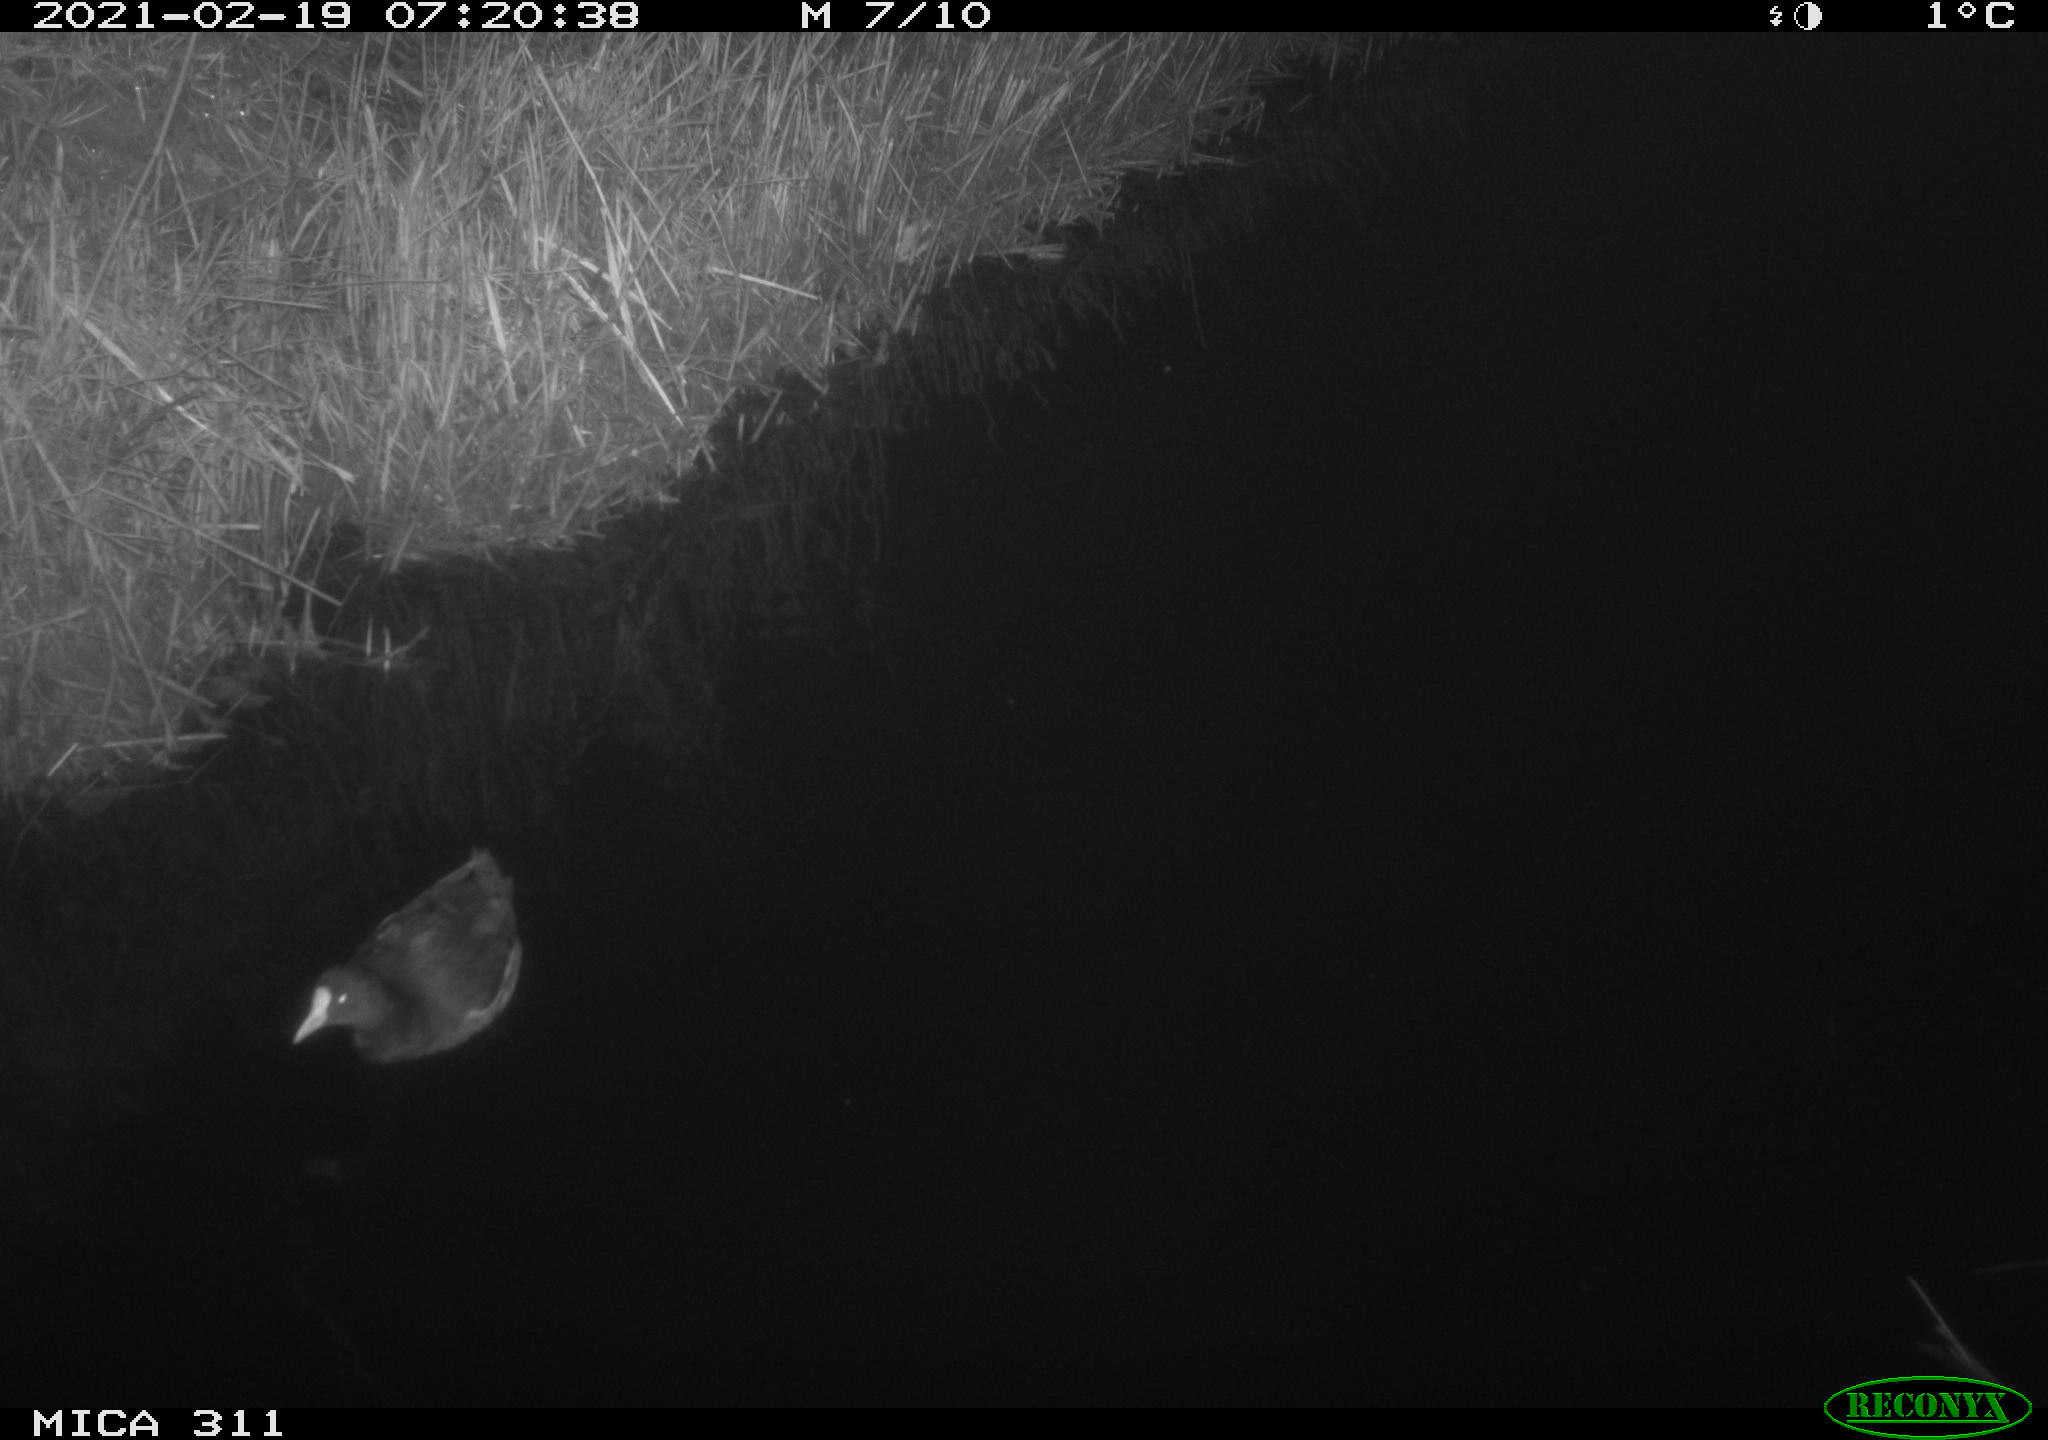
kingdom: Animalia
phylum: Chordata
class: Aves
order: Gruiformes
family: Rallidae
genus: Gallinula
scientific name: Gallinula chloropus
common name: Common moorhen
